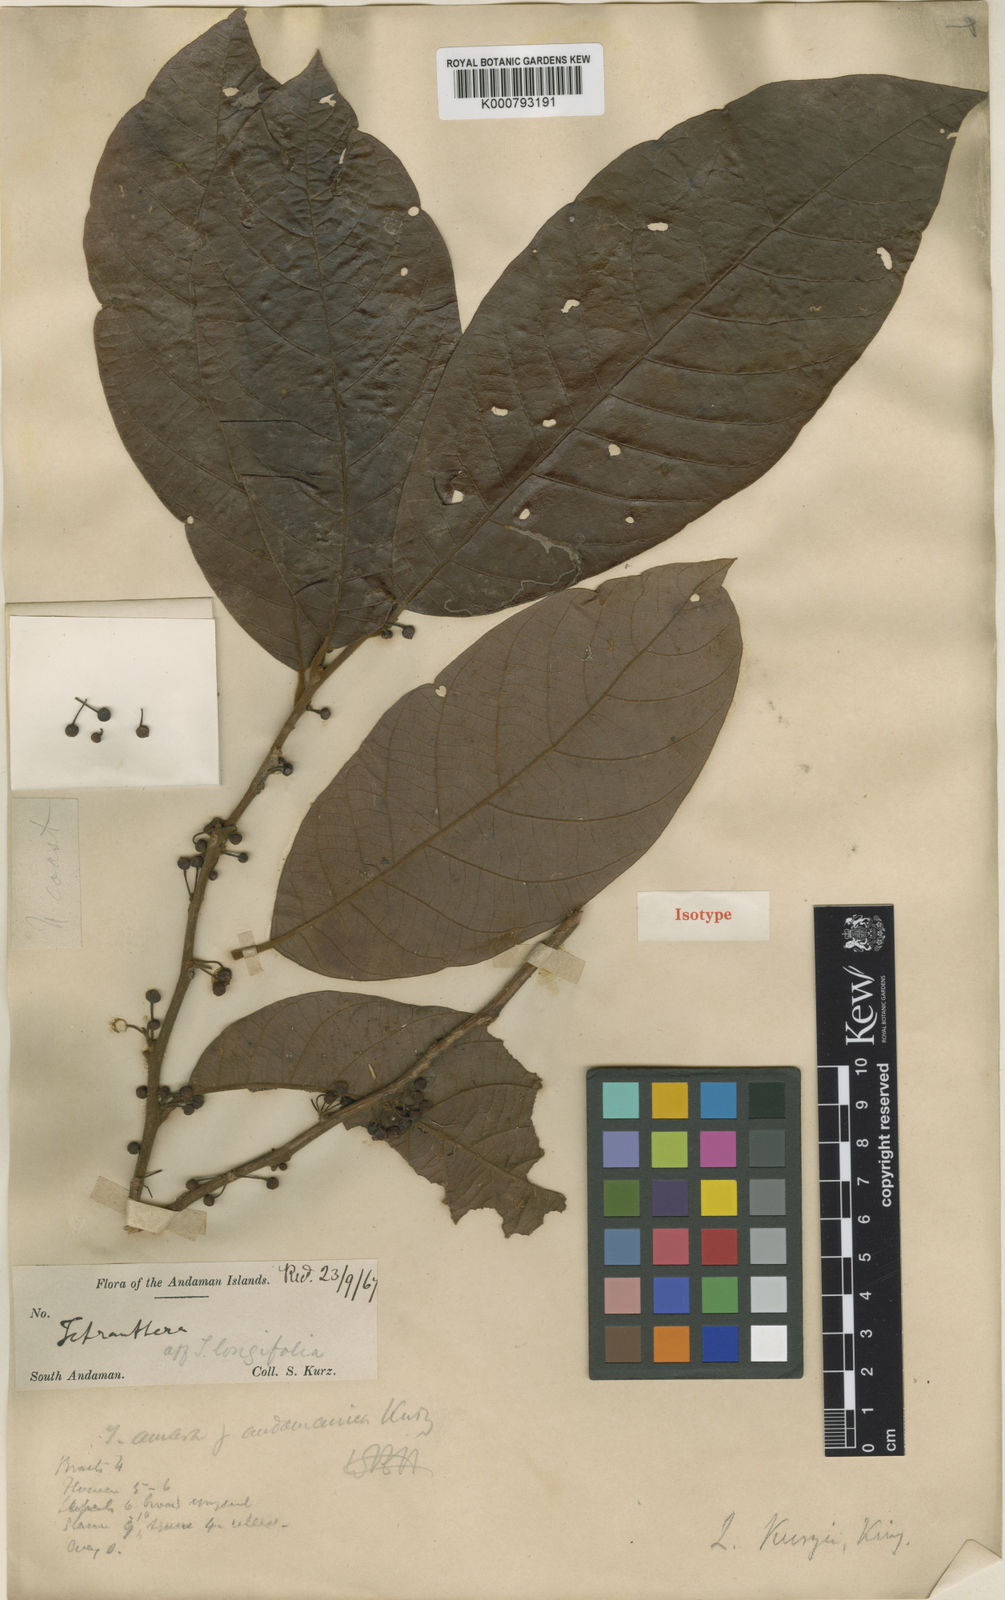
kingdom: Plantae
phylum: Tracheophyta
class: Magnoliopsida
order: Laurales
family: Lauraceae
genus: Litsea
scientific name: Litsea kurzii
